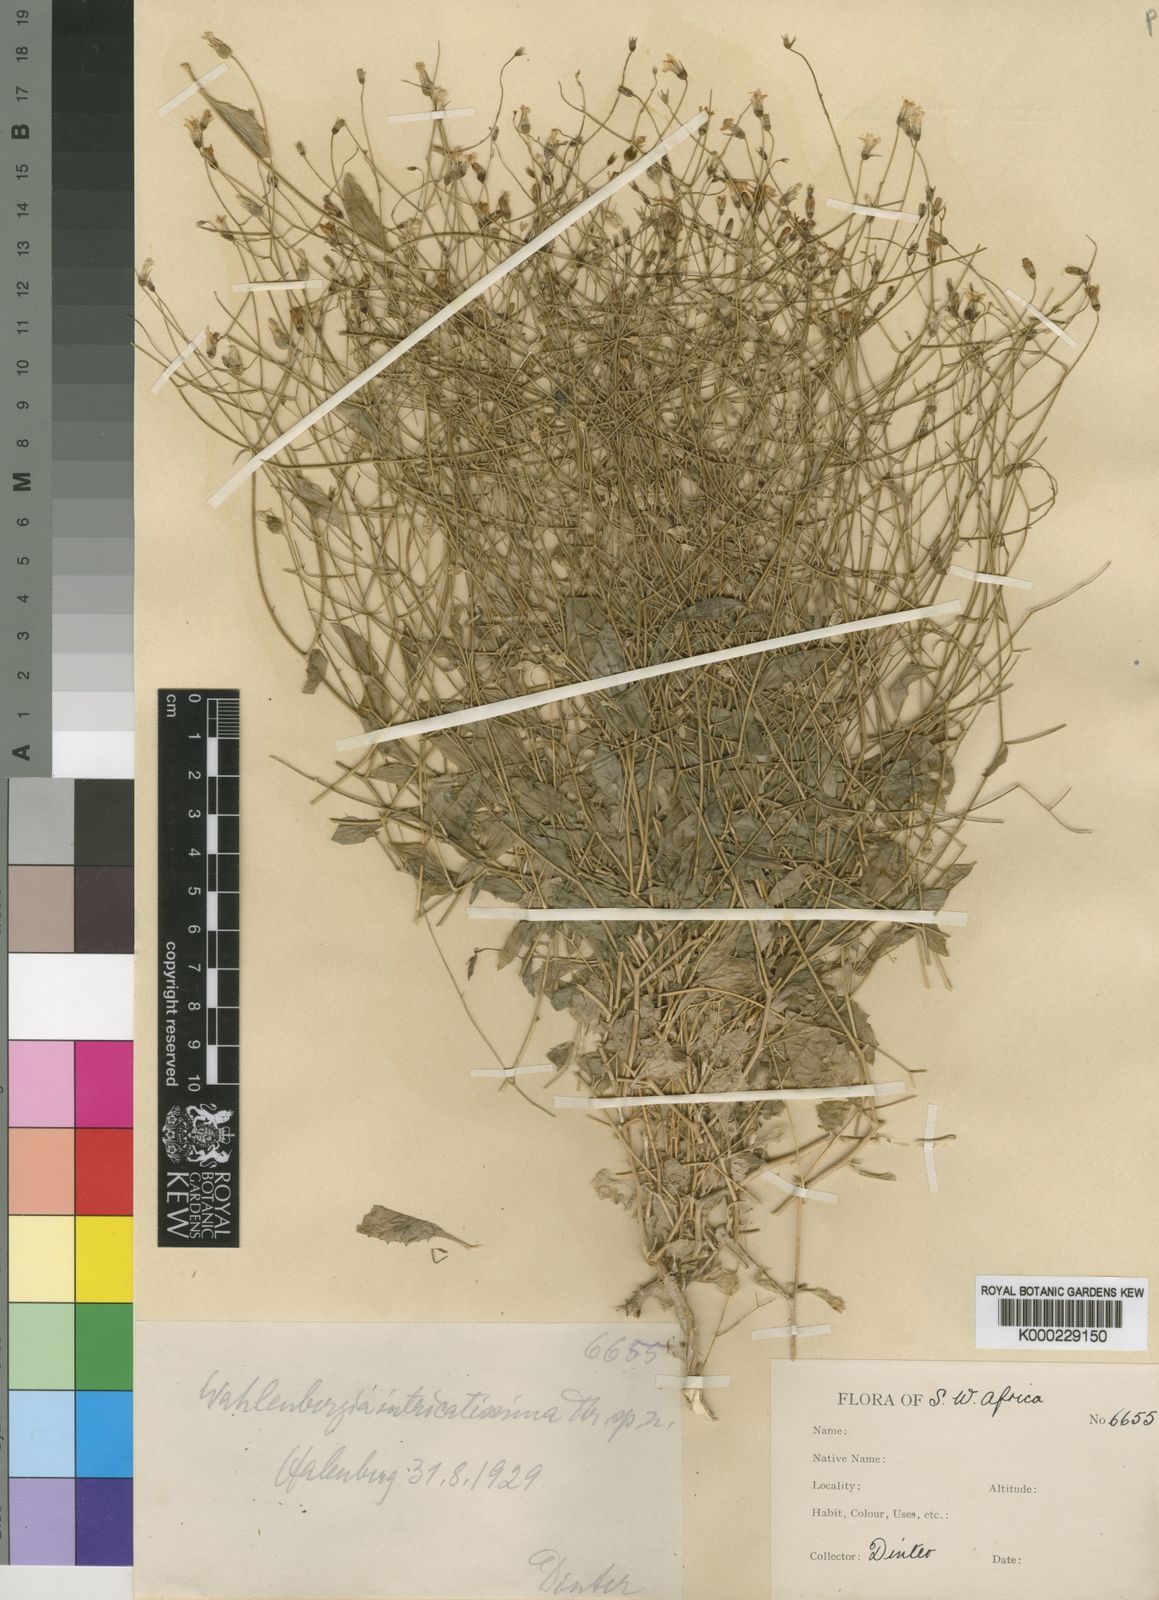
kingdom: Plantae
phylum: Tracheophyta
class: Magnoliopsida
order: Asterales
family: Campanulaceae
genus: Wahlenbergia
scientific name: Wahlenbergia
